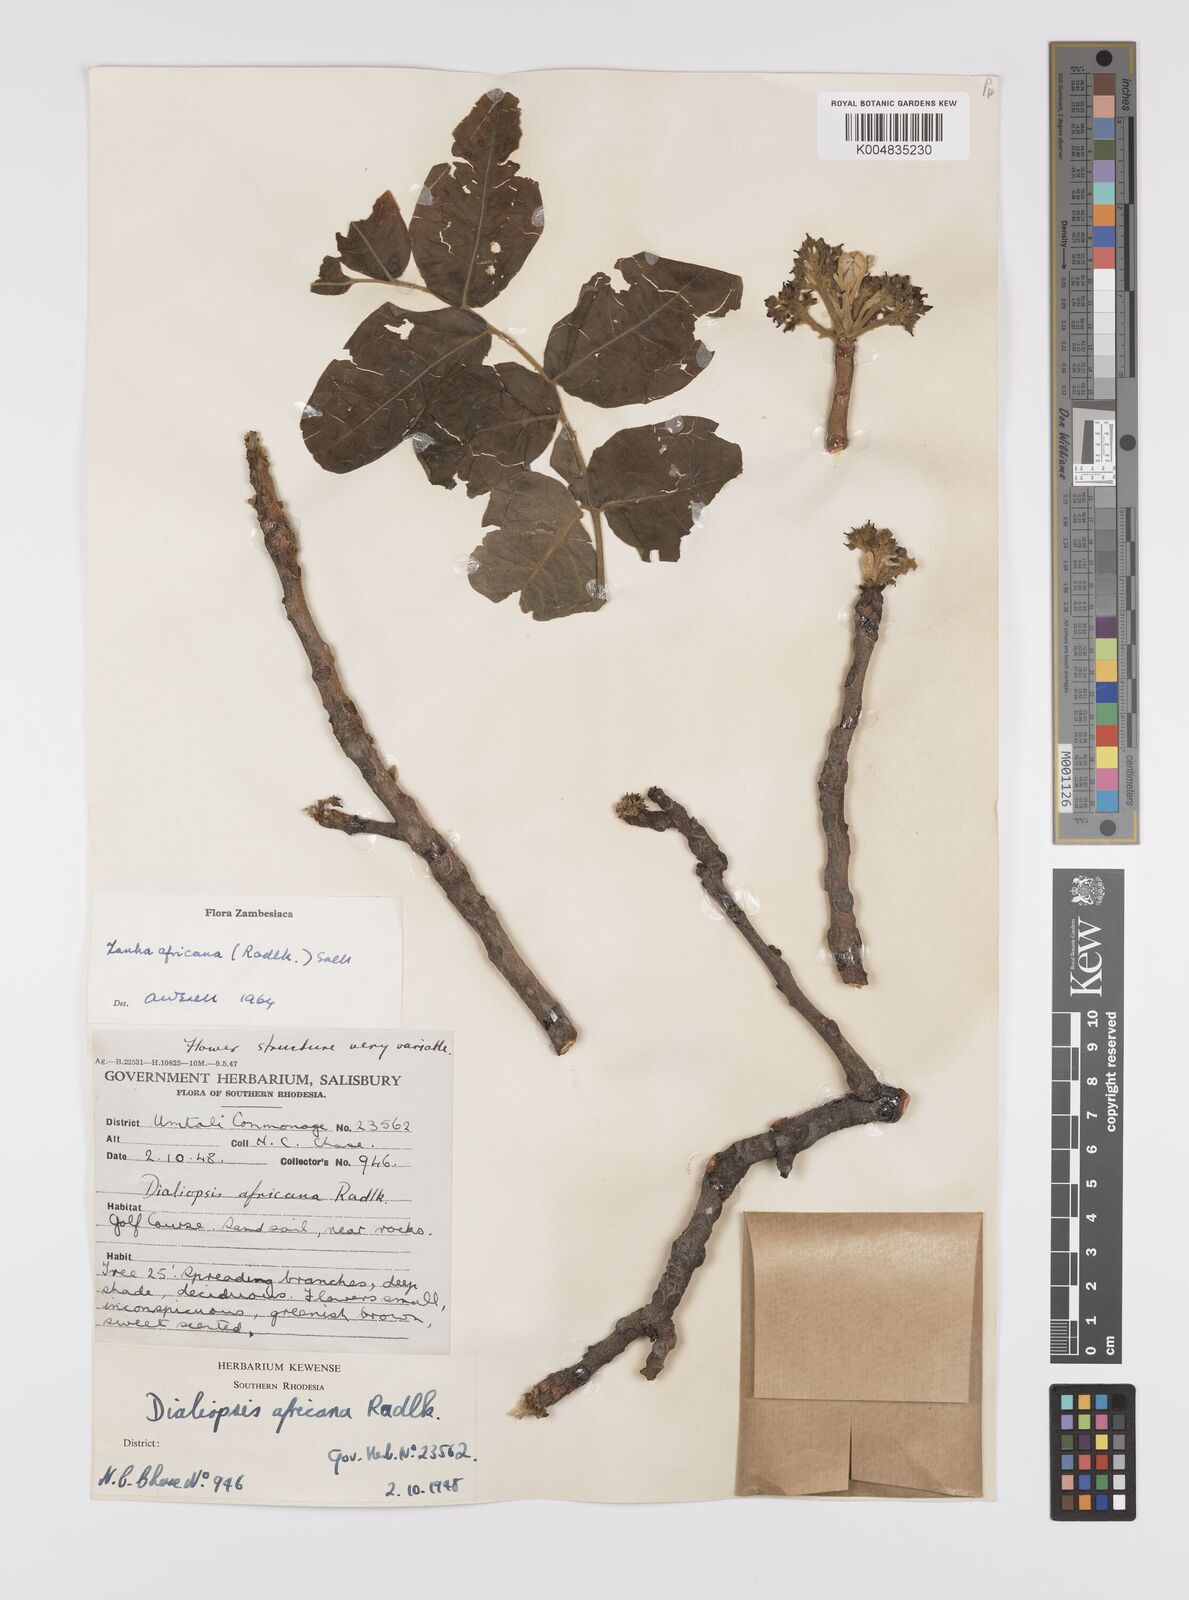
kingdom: Plantae
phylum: Tracheophyta
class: Magnoliopsida
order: Sapindales
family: Sapindaceae
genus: Zanha
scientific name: Zanha africana
